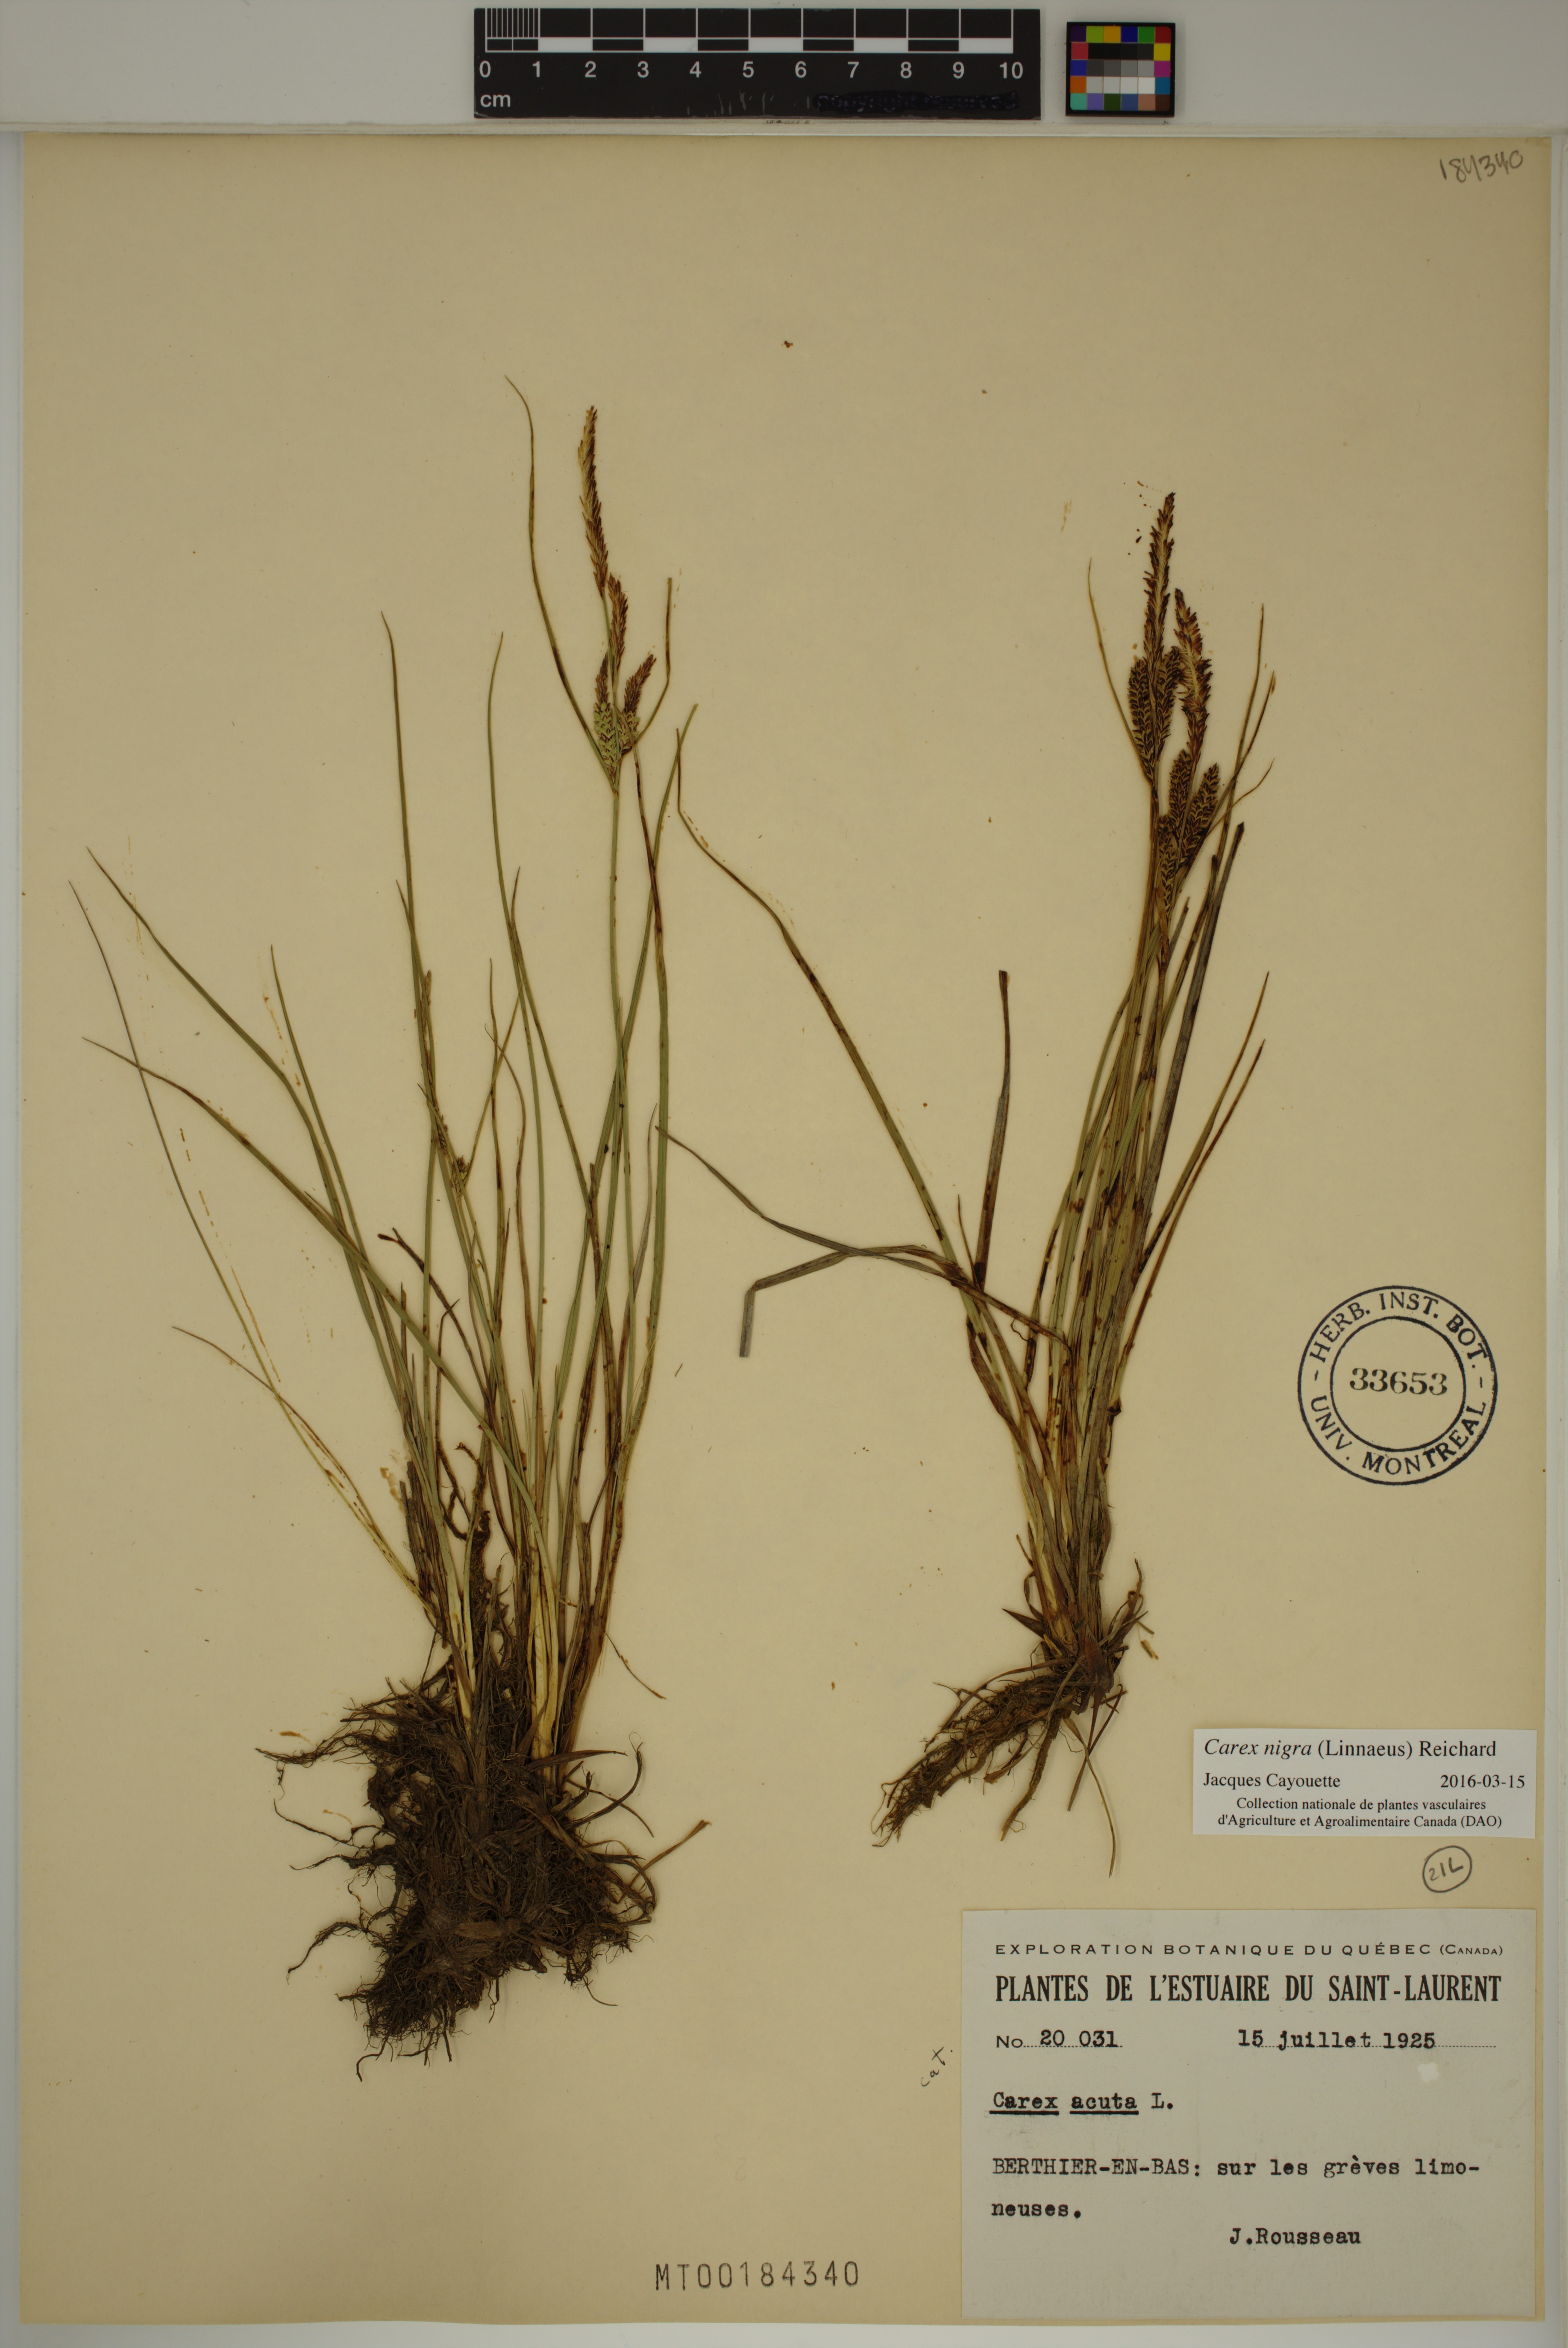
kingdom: Plantae
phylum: Tracheophyta
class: Liliopsida
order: Poales
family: Cyperaceae
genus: Carex
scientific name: Carex nigra
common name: Common sedge
